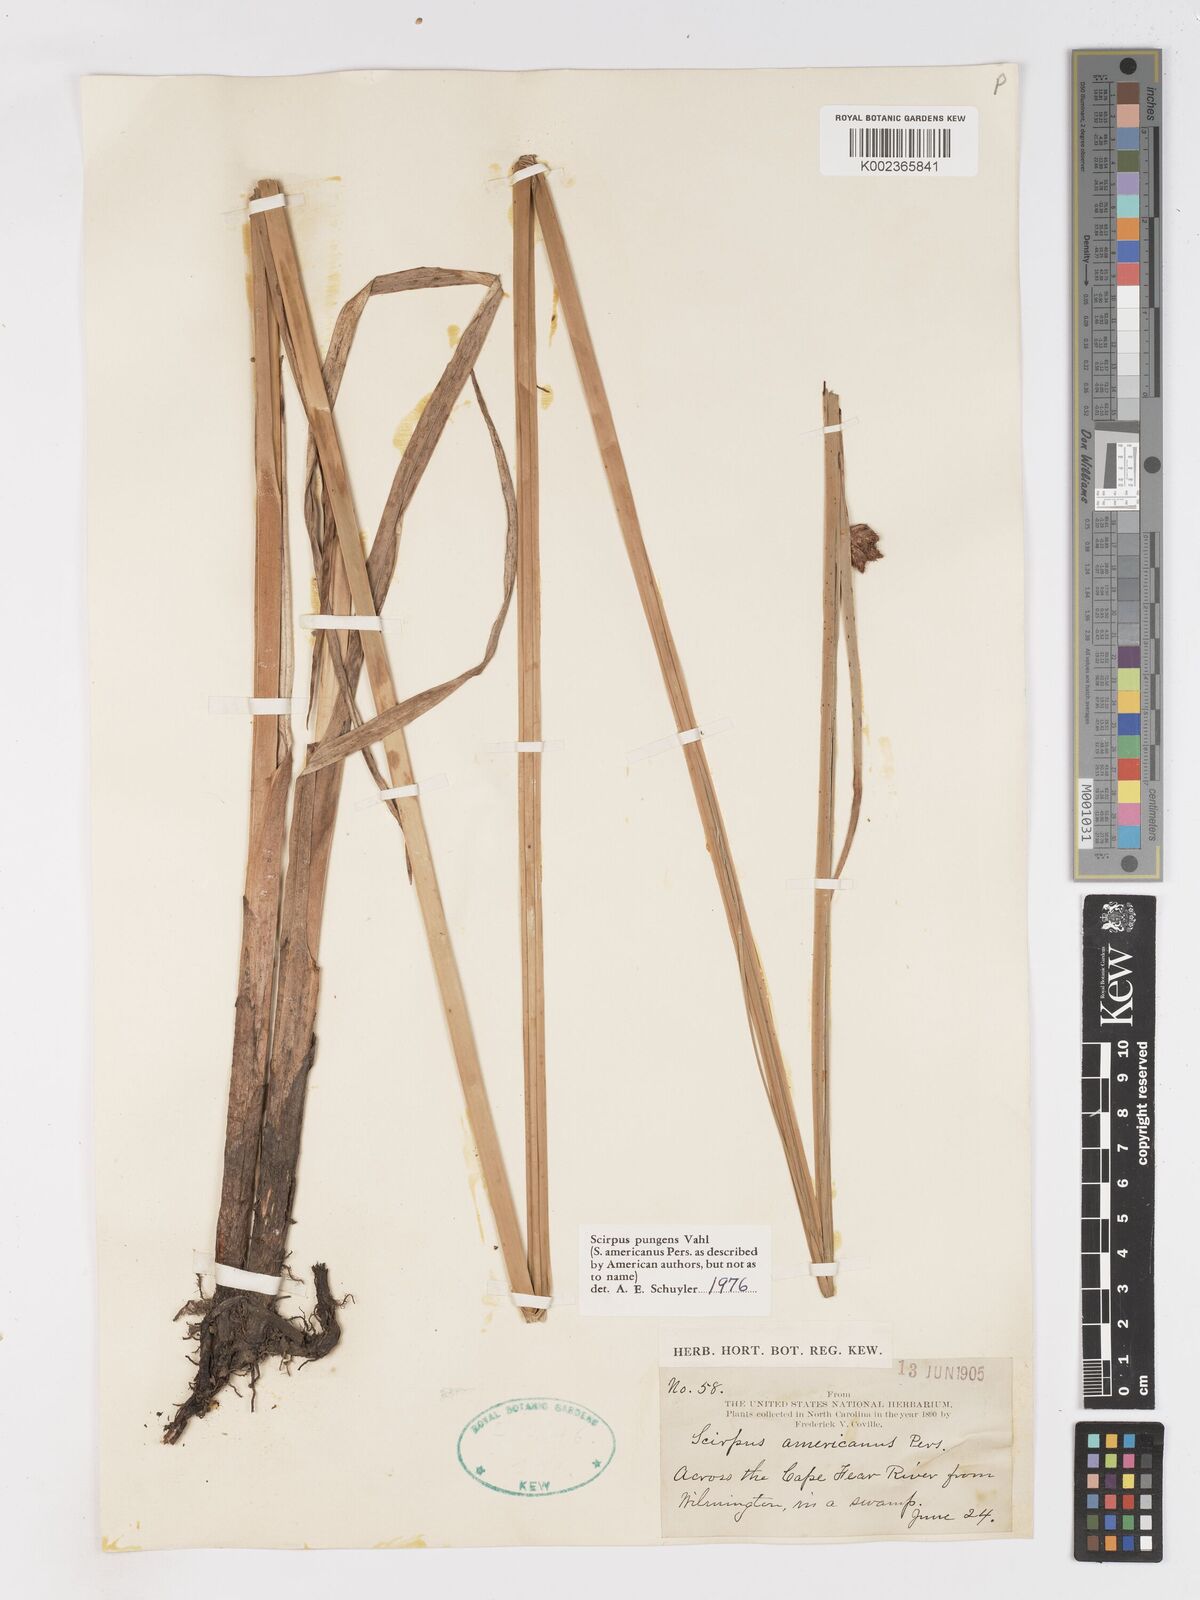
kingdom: Plantae
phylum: Tracheophyta
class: Liliopsida
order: Poales
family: Cyperaceae
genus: Schoenoplectus
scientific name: Schoenoplectus pungens
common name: Sharp club-rush
